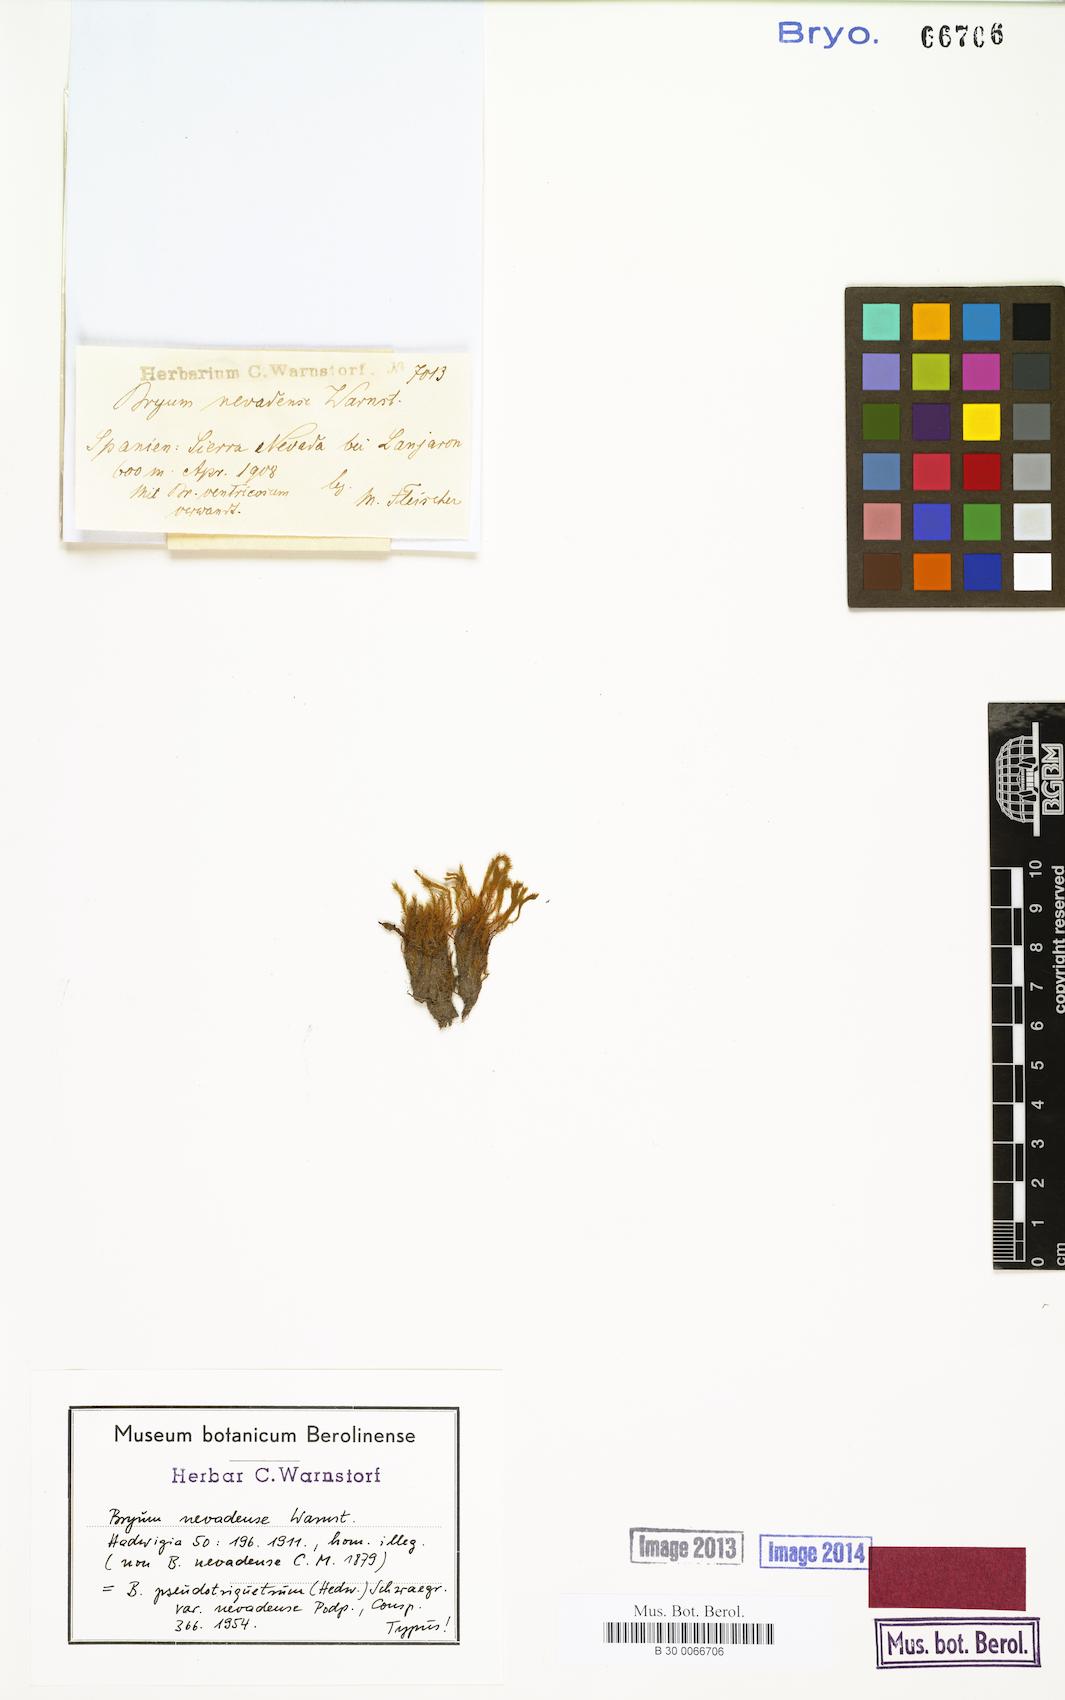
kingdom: Plantae
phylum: Bryophyta
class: Bryopsida
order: Bryales
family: Bryaceae
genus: Bryum
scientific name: Bryum
